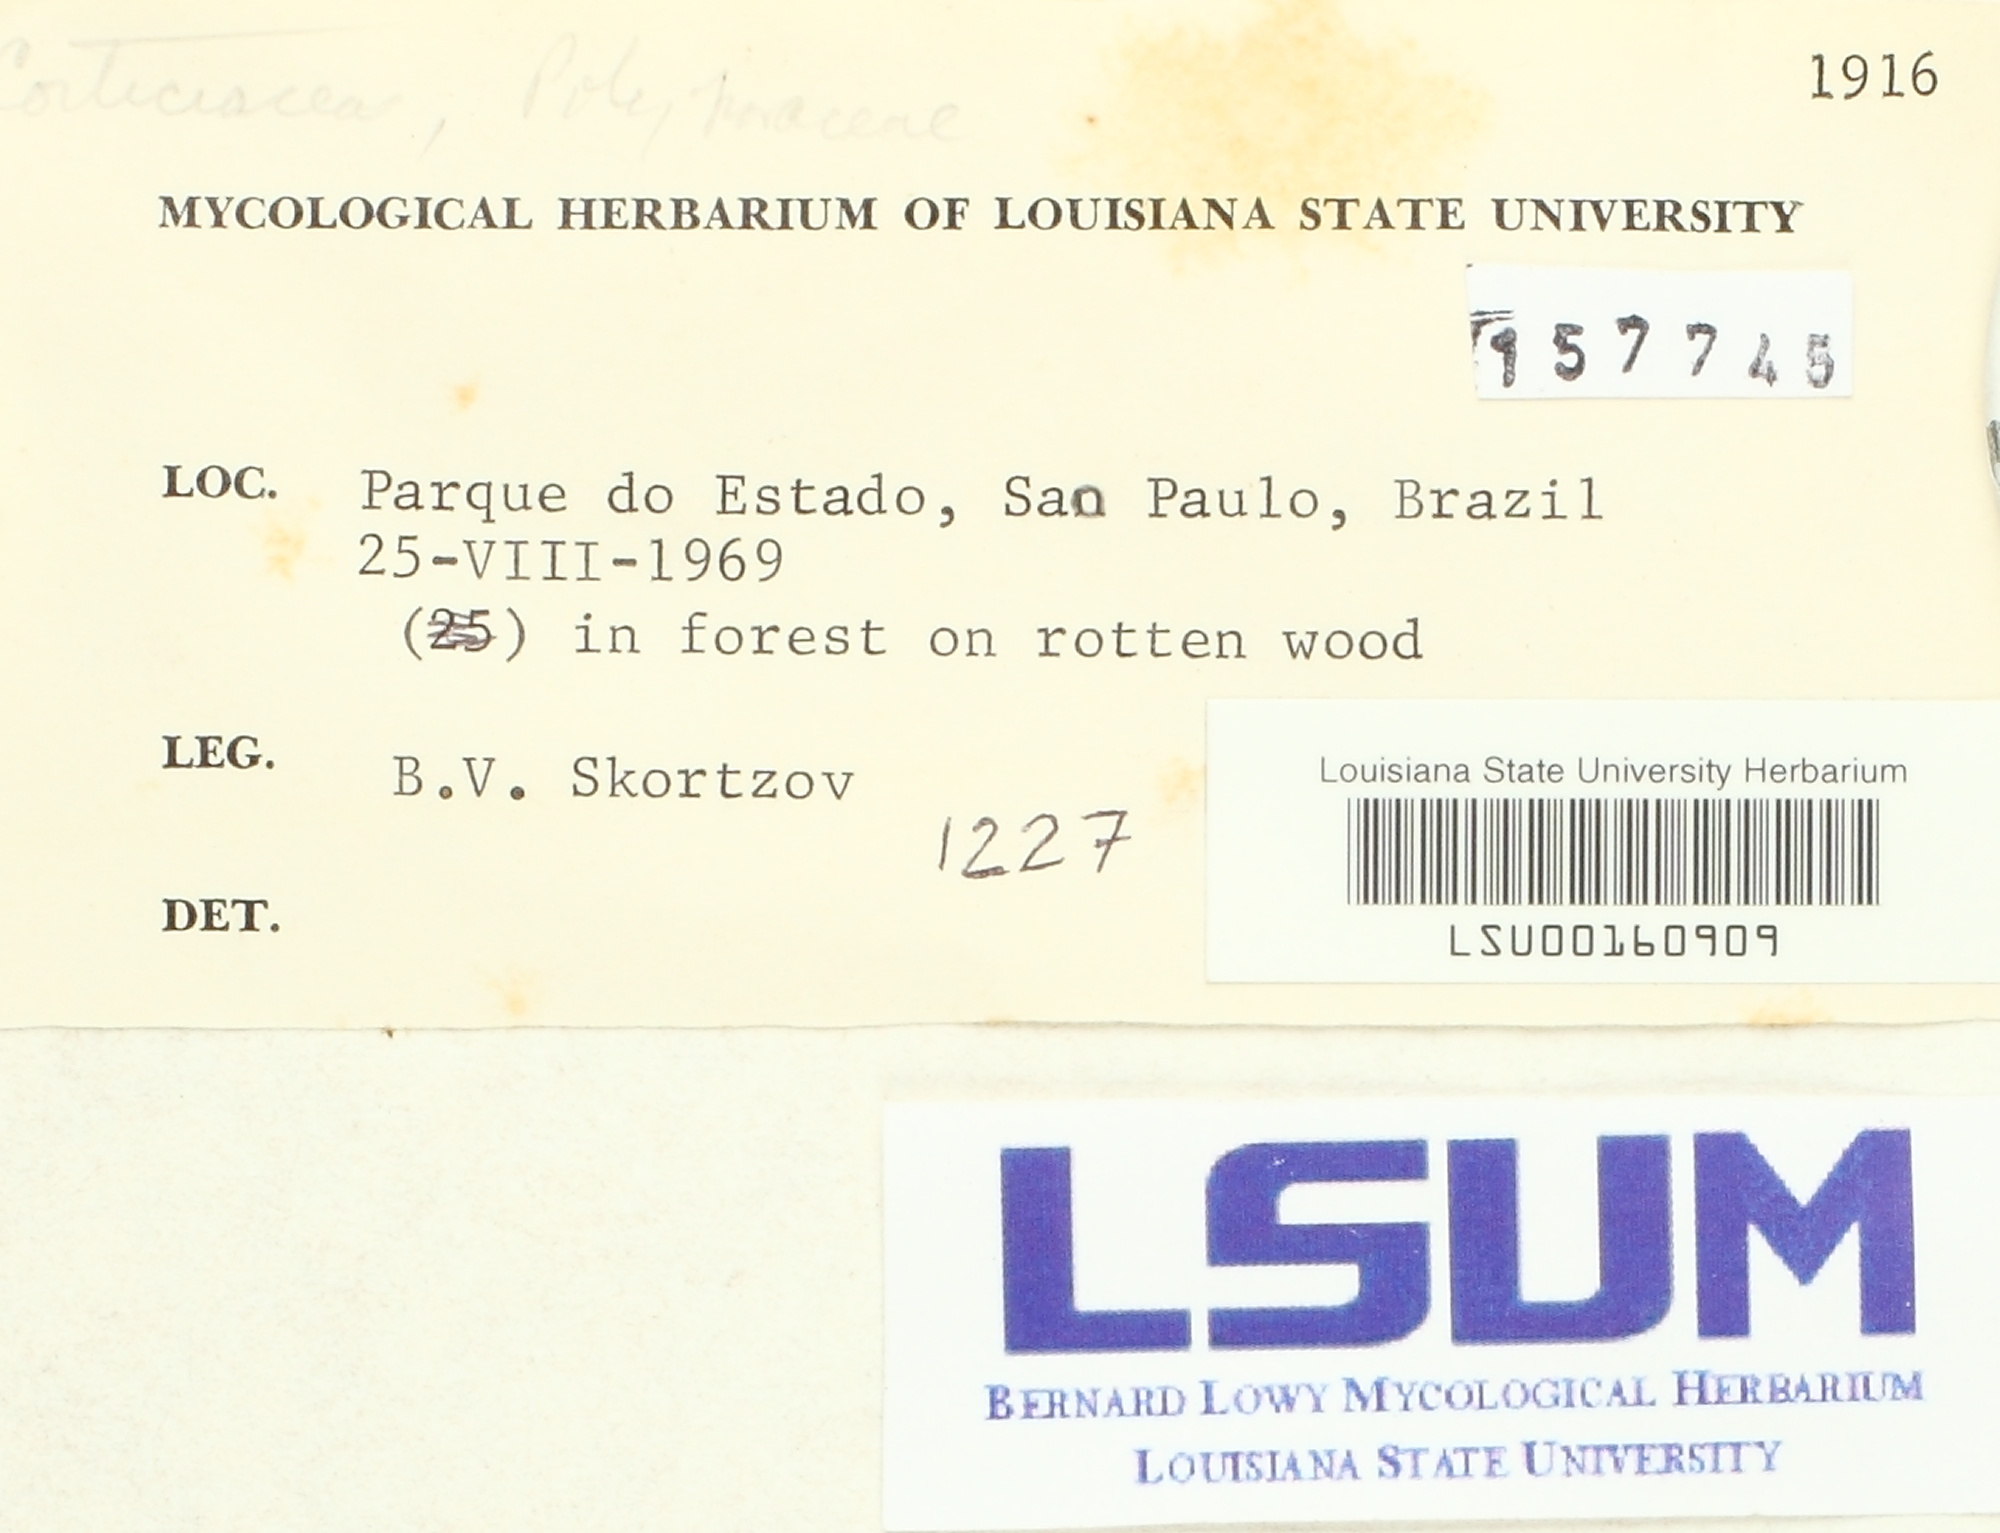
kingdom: Fungi
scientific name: Fungi
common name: Fungi
